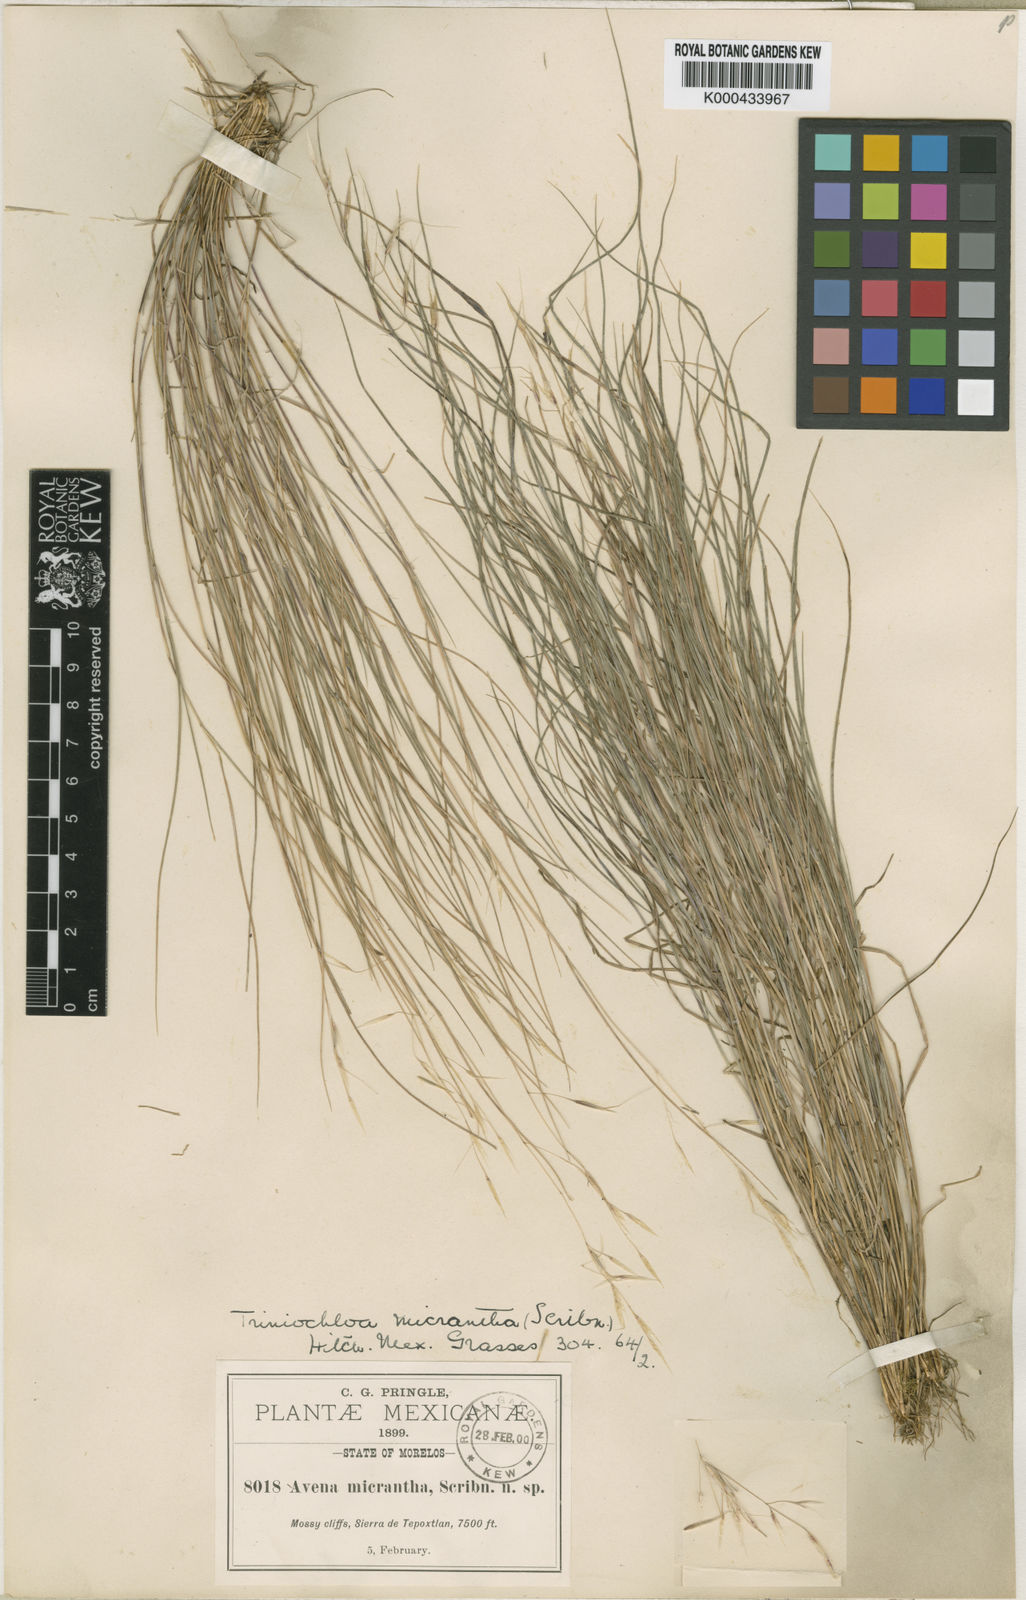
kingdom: Plantae
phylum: Tracheophyta
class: Liliopsida
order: Poales
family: Poaceae
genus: Triniochloa
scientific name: Triniochloa micrantha
